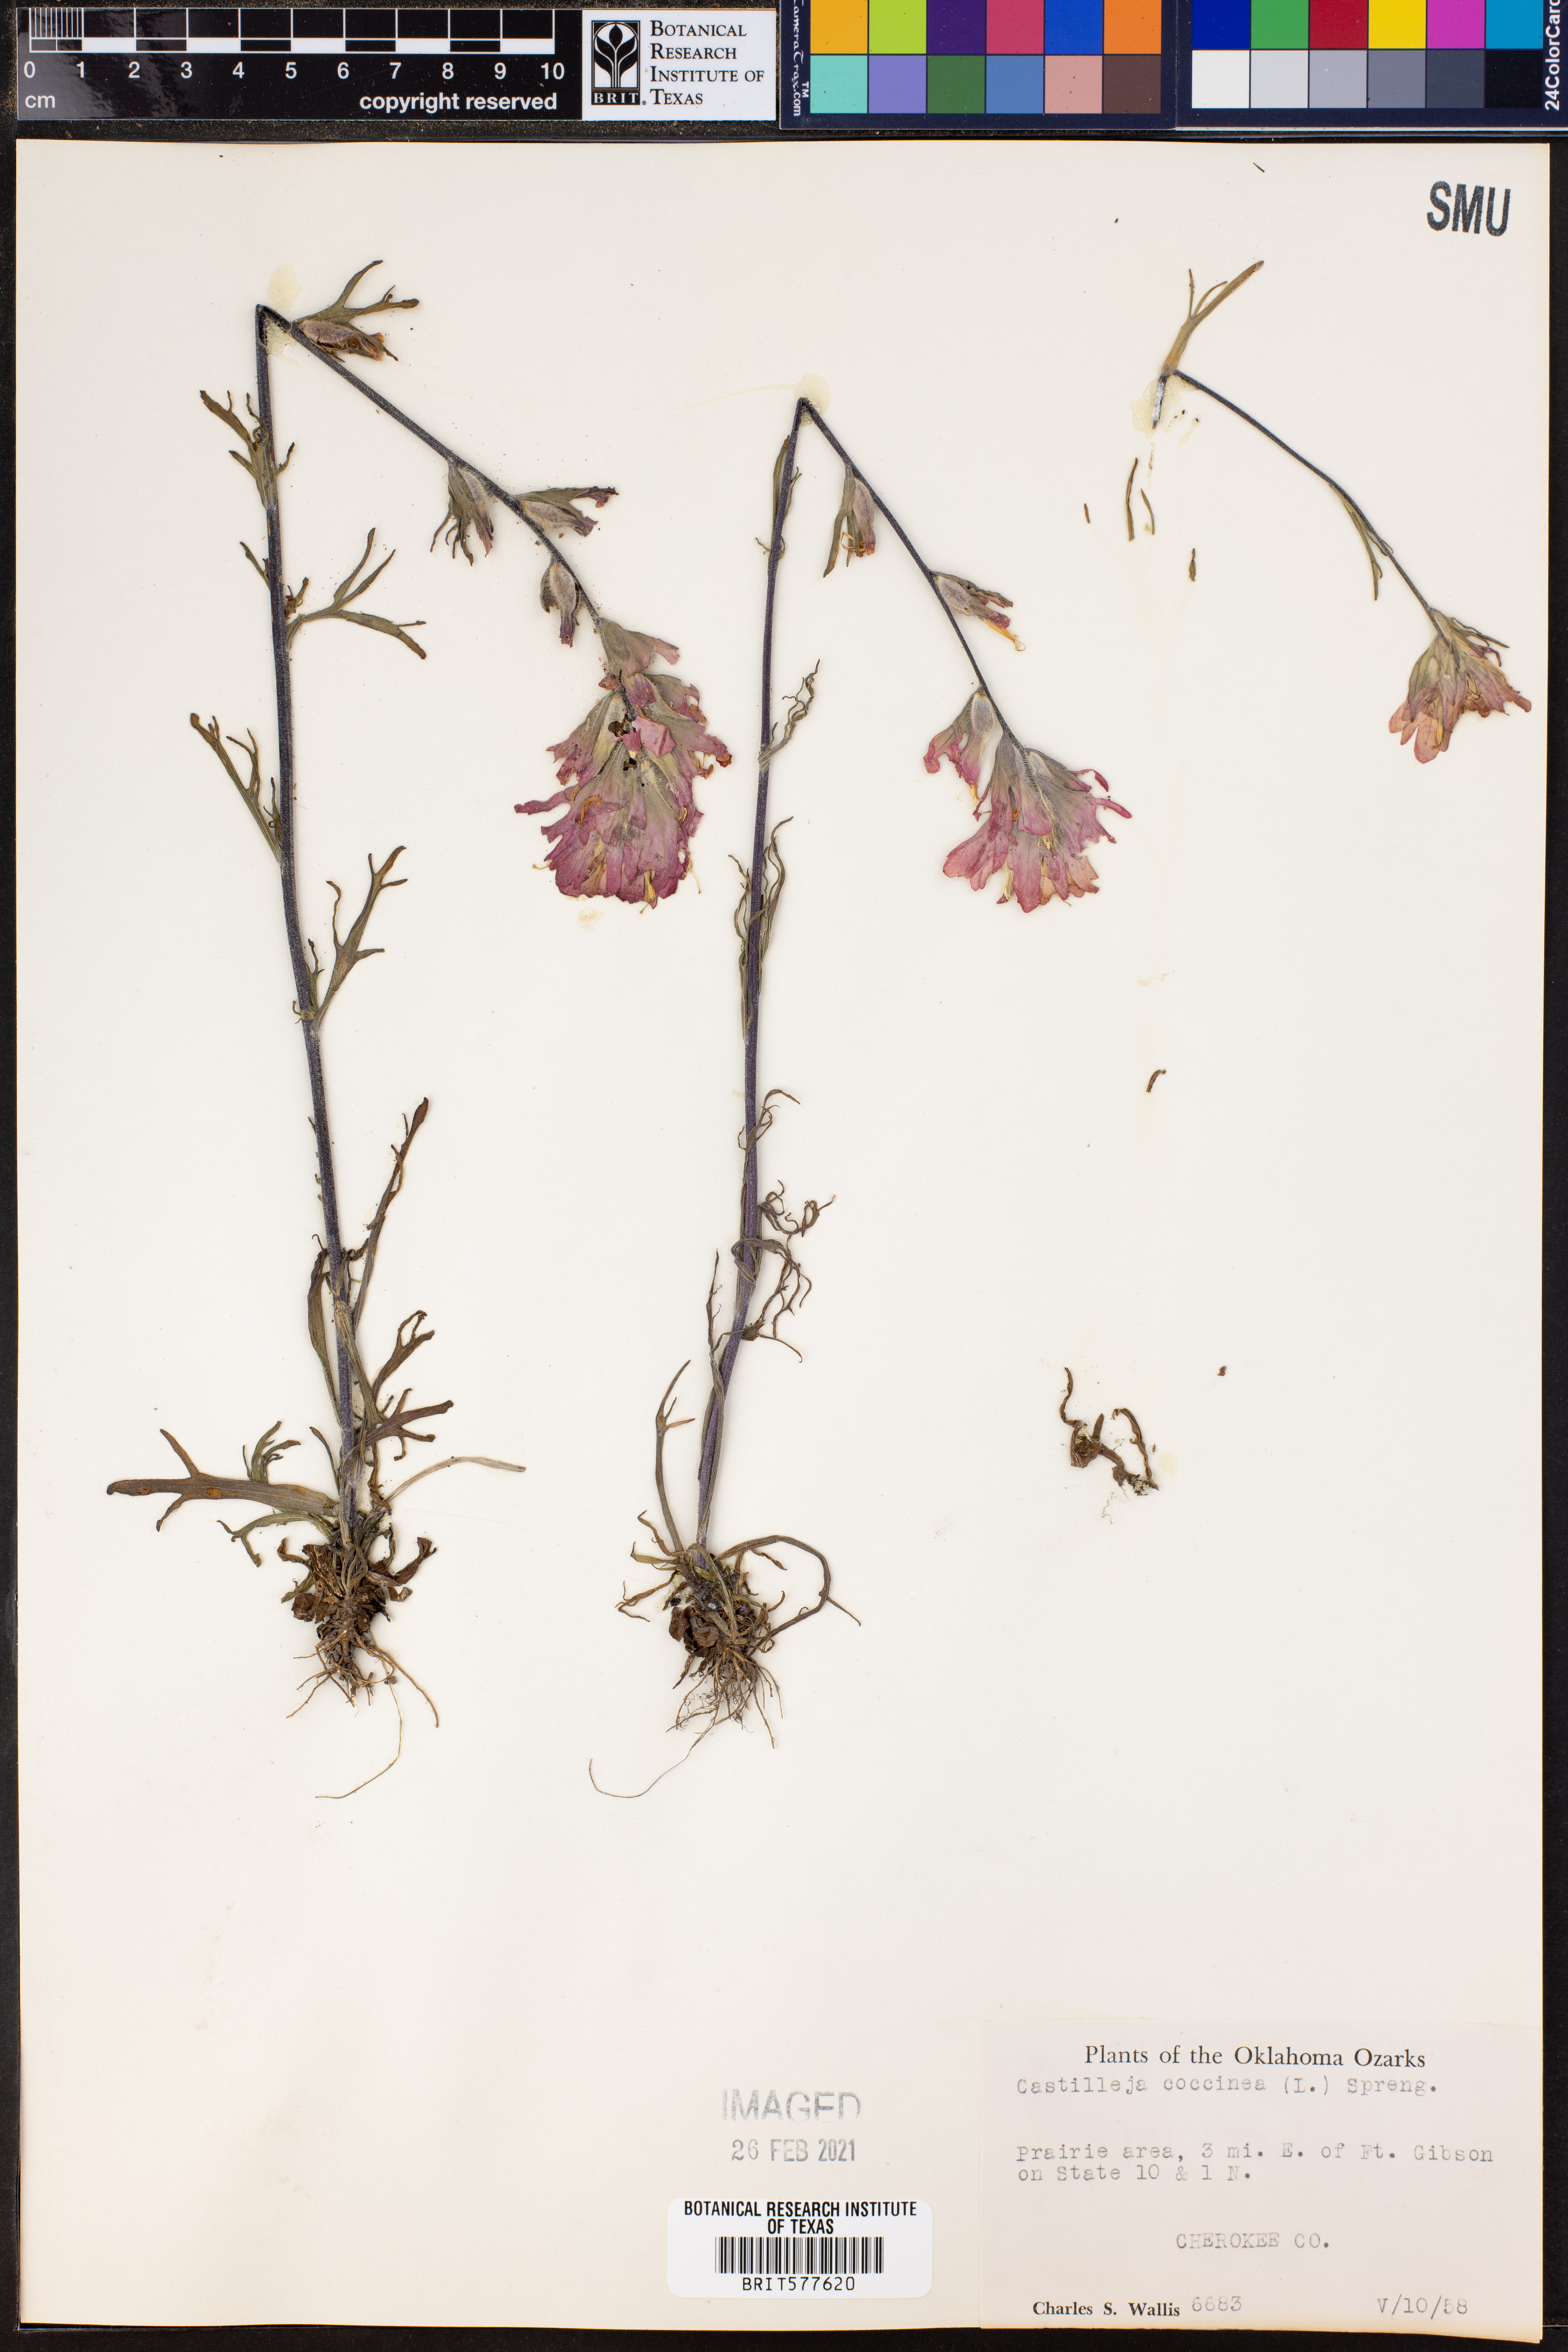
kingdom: Plantae
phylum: Tracheophyta
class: Magnoliopsida
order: Lamiales
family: Orobanchaceae
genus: Castilleja
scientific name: Castilleja coccinea
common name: Scarlet paintbrush
